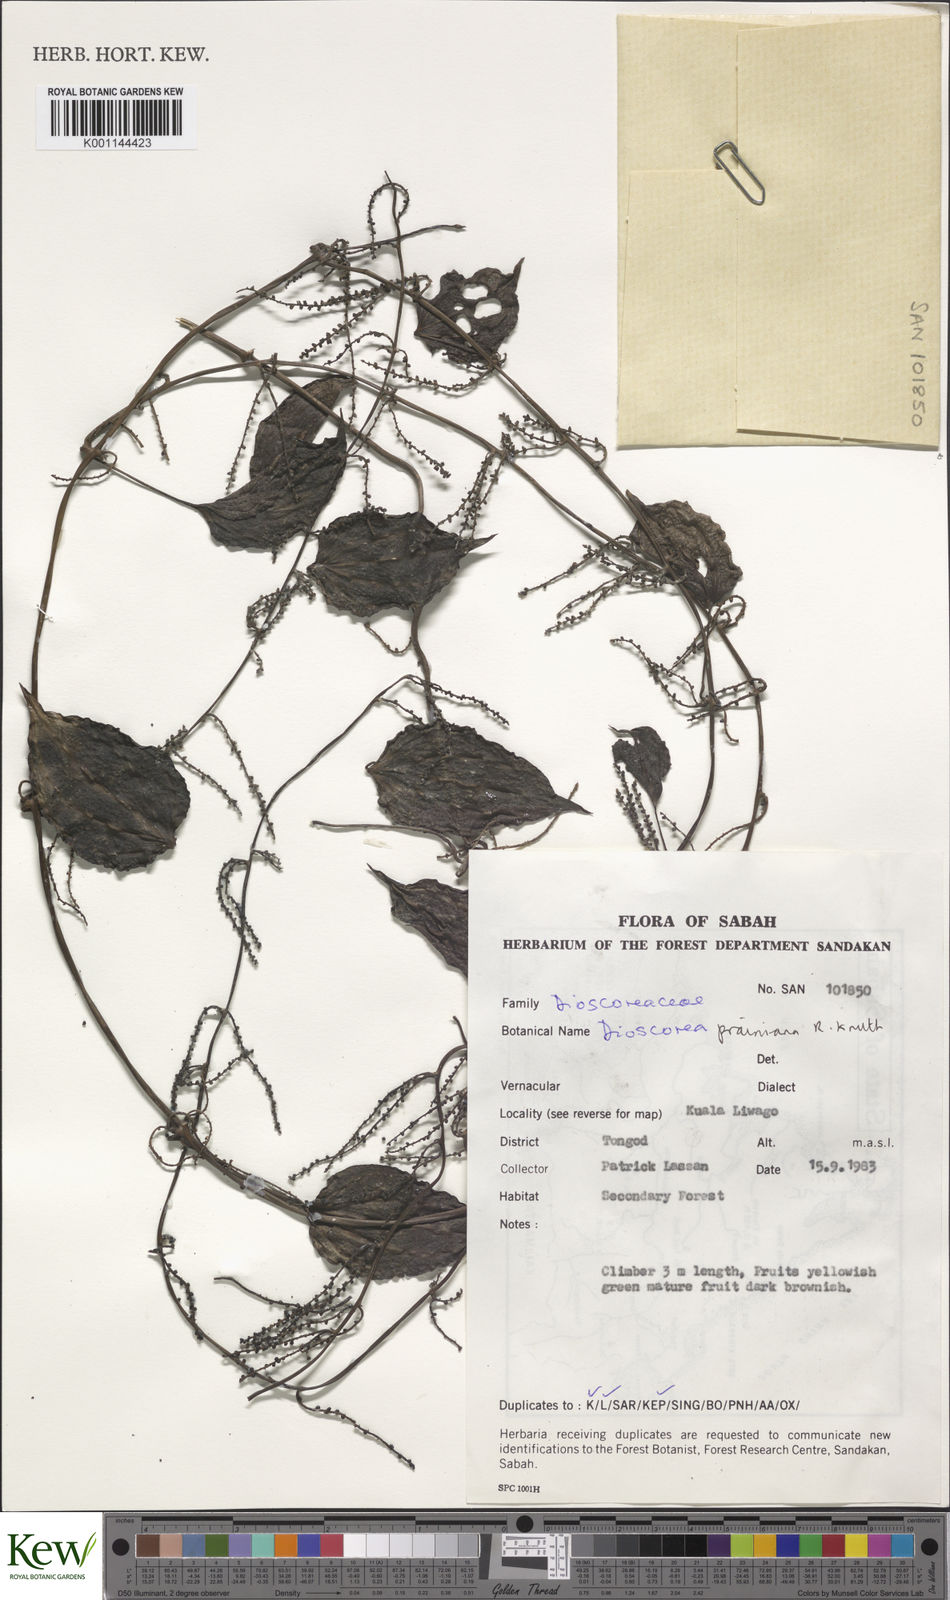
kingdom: Plantae
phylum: Tracheophyta
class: Liliopsida
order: Dioscoreales
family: Dioscoreaceae
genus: Dioscorea
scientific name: Dioscorea prainiana
